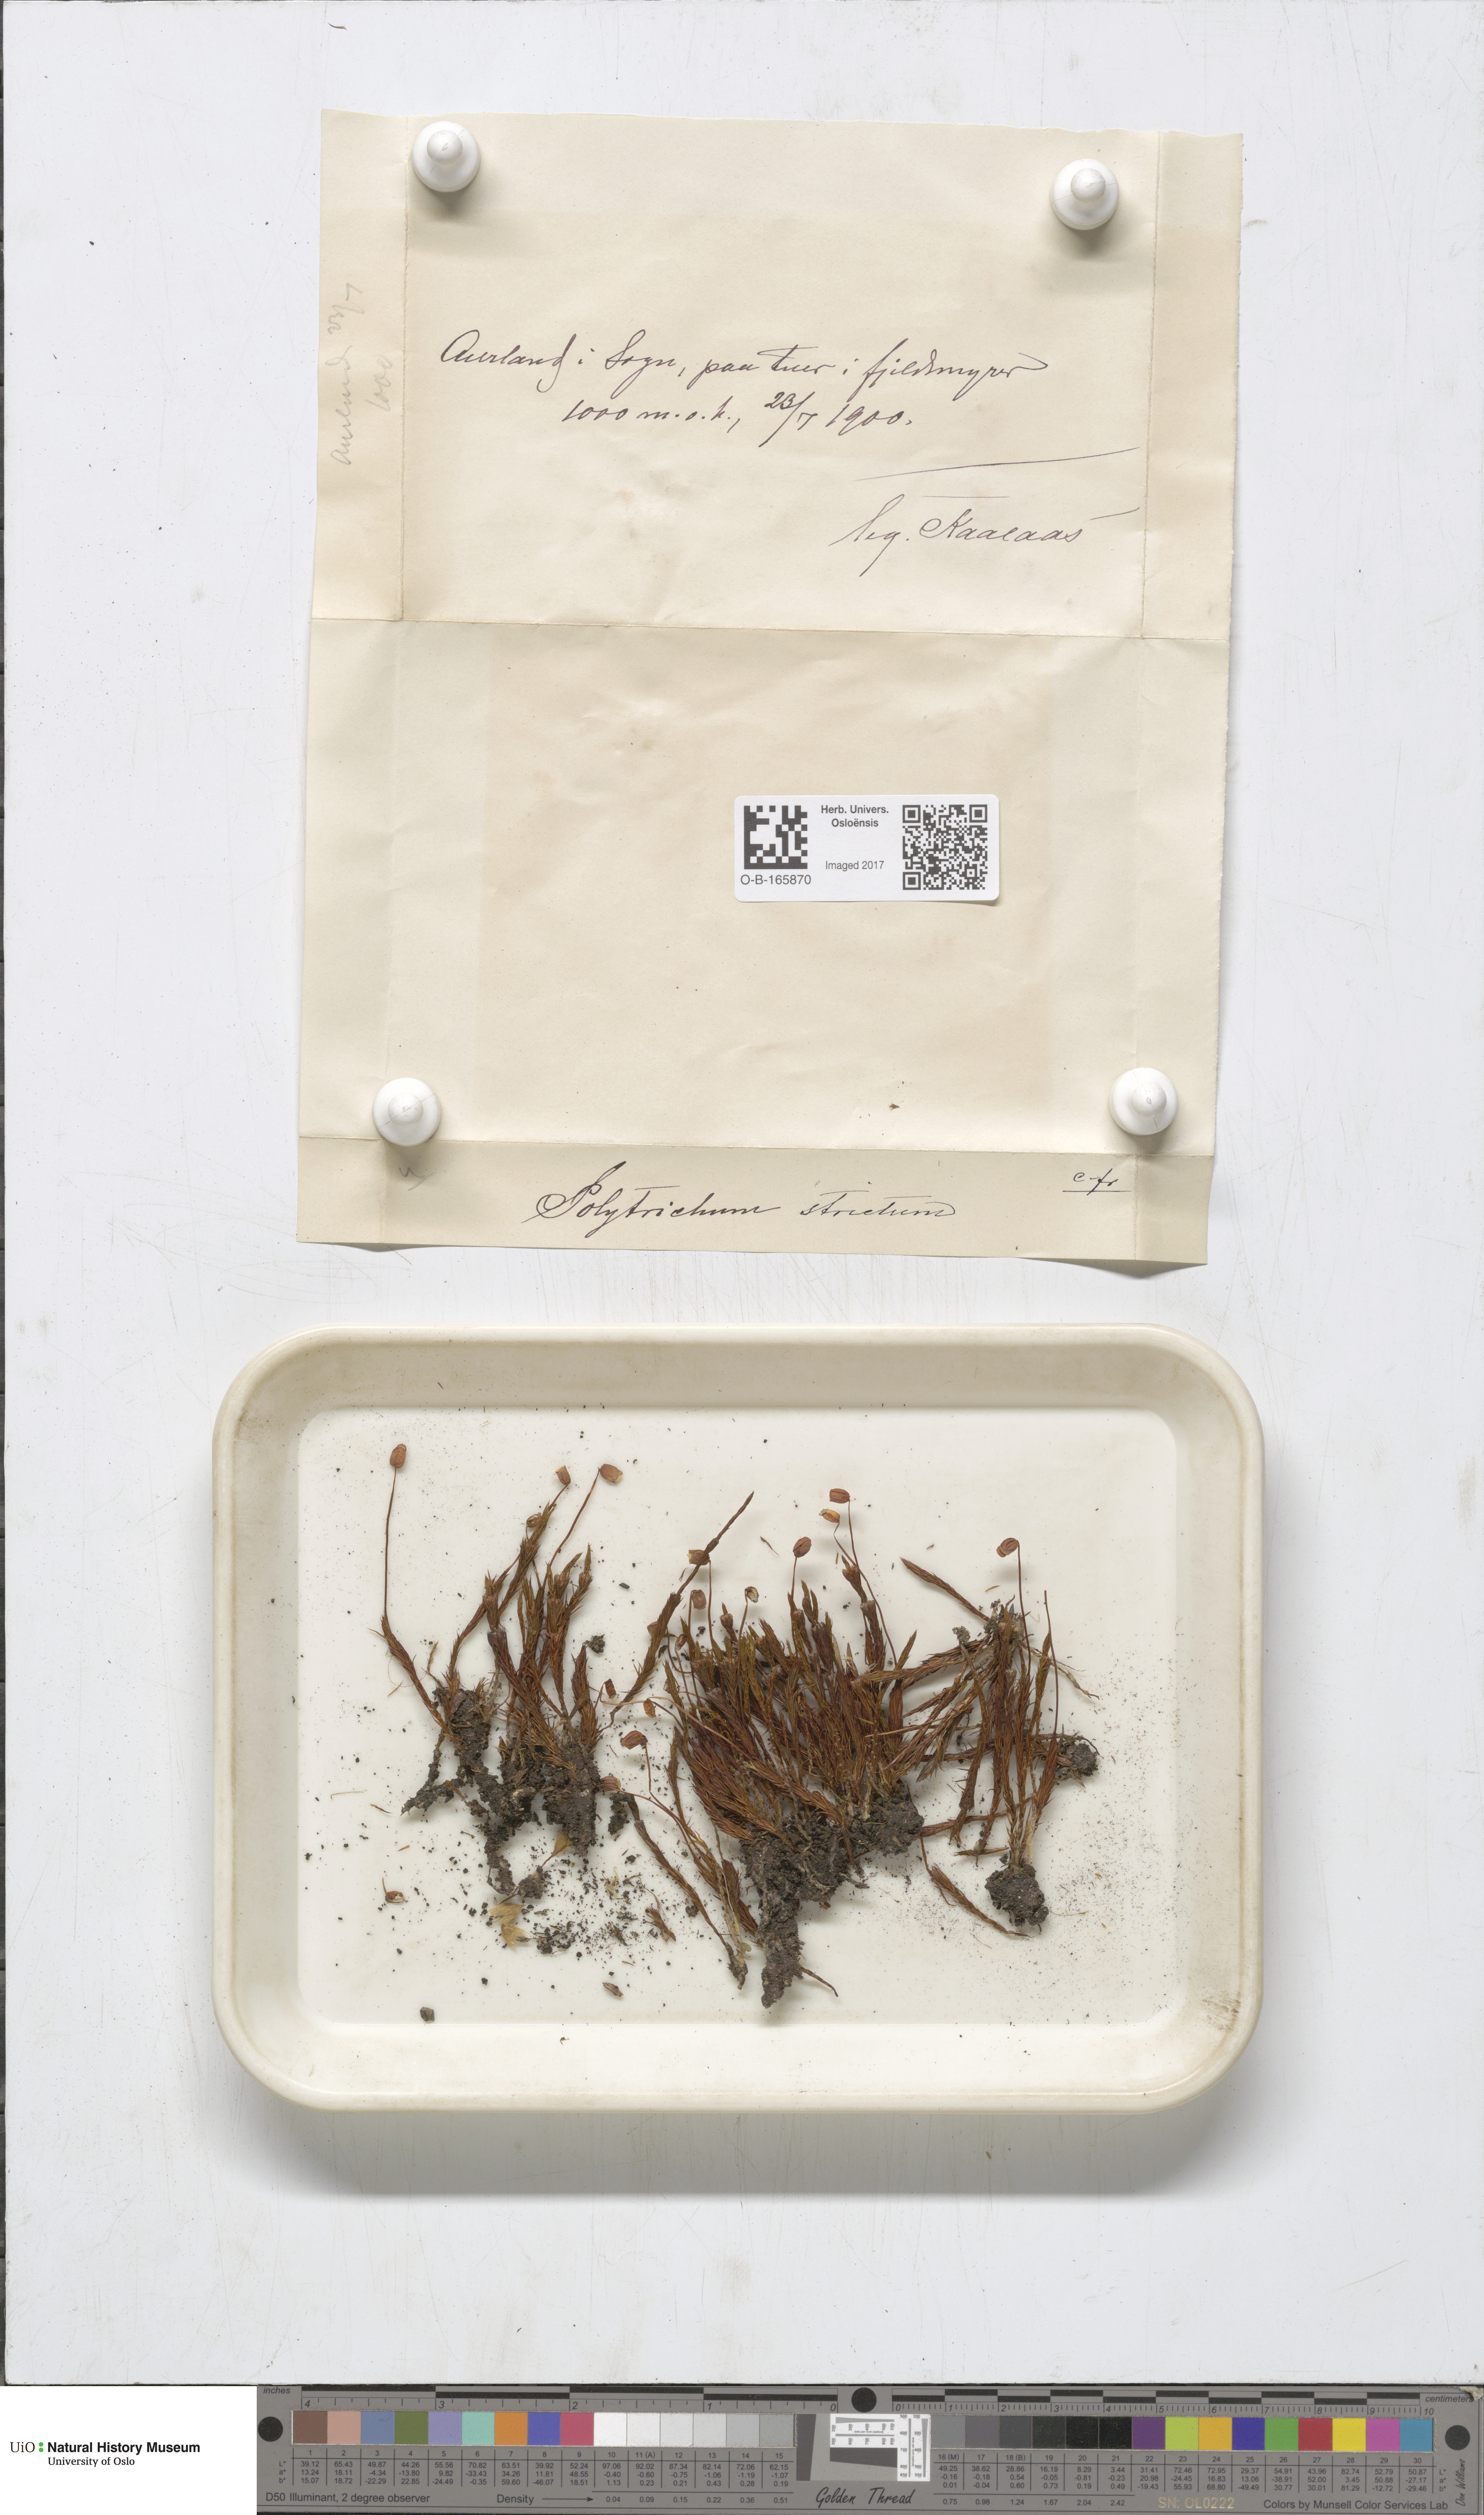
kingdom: Plantae
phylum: Bryophyta
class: Polytrichopsida
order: Polytrichales
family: Polytrichaceae
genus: Polytrichum
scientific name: Polytrichum strictum
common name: Bog haircap moss
